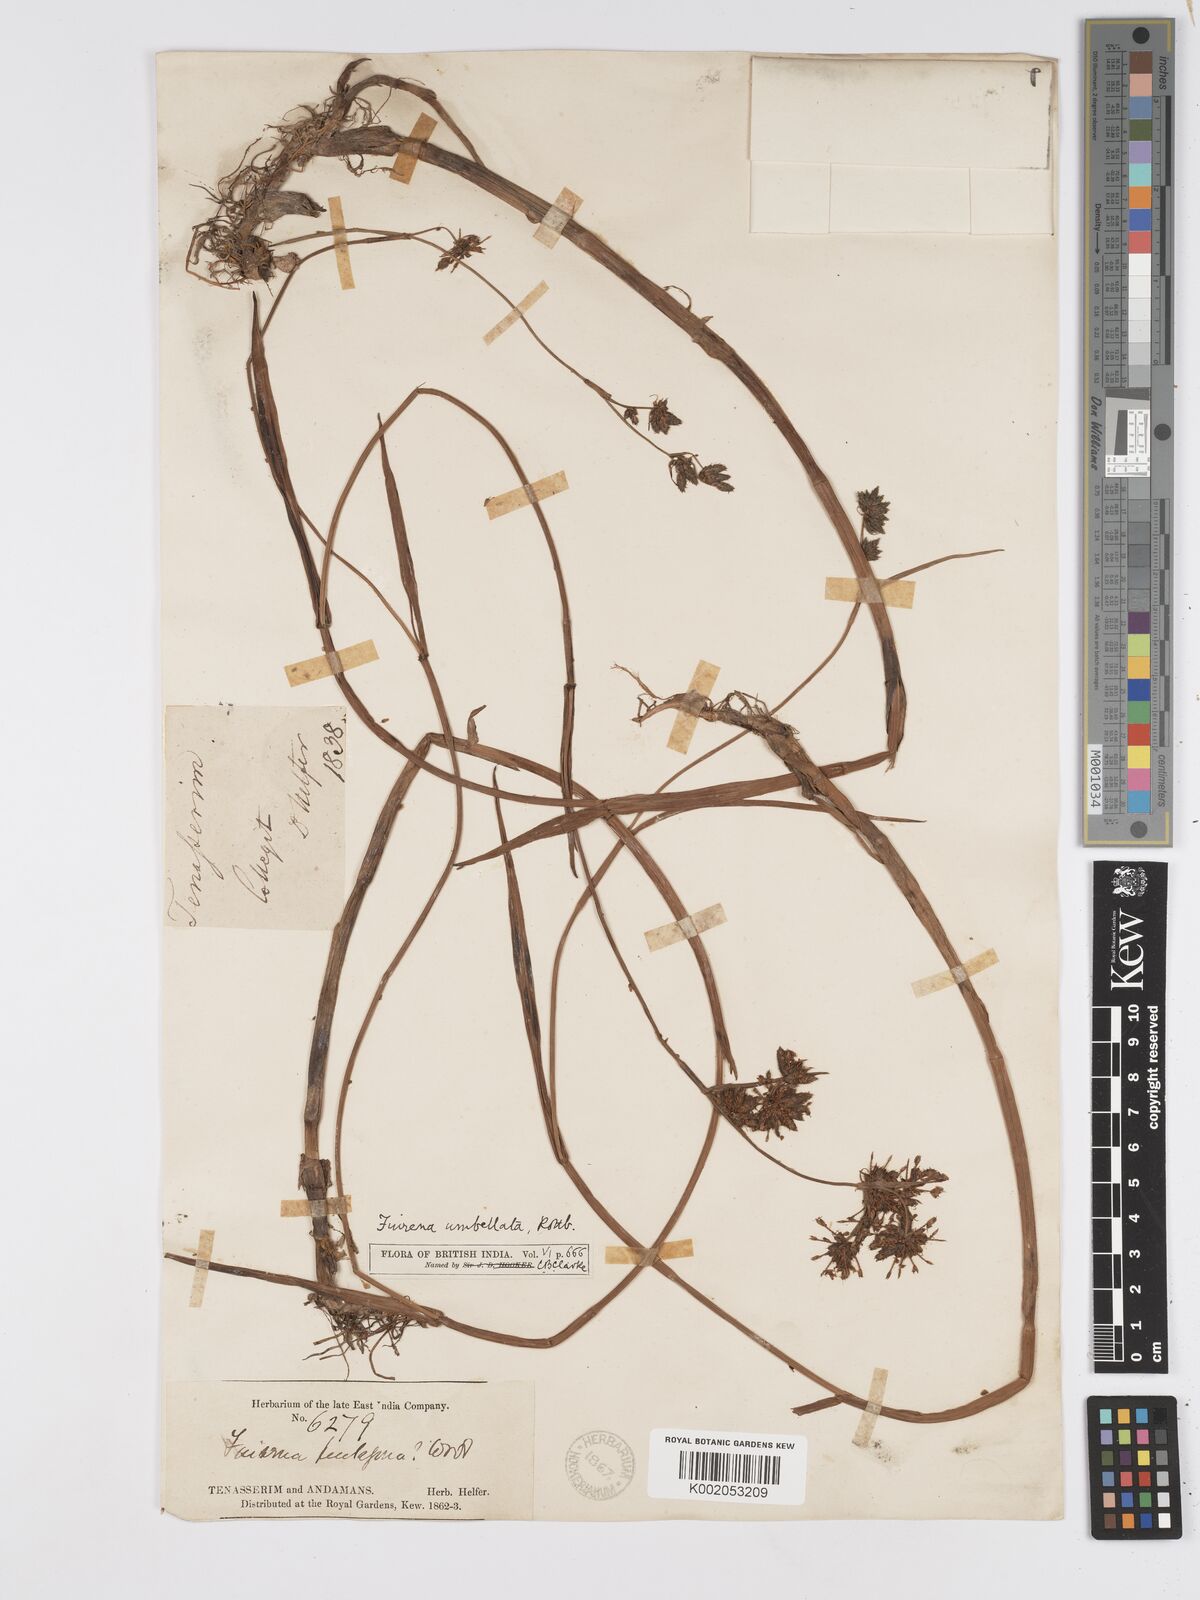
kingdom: Plantae
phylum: Tracheophyta
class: Liliopsida
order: Poales
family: Cyperaceae
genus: Fuirena
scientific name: Fuirena umbellata
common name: Yefen
